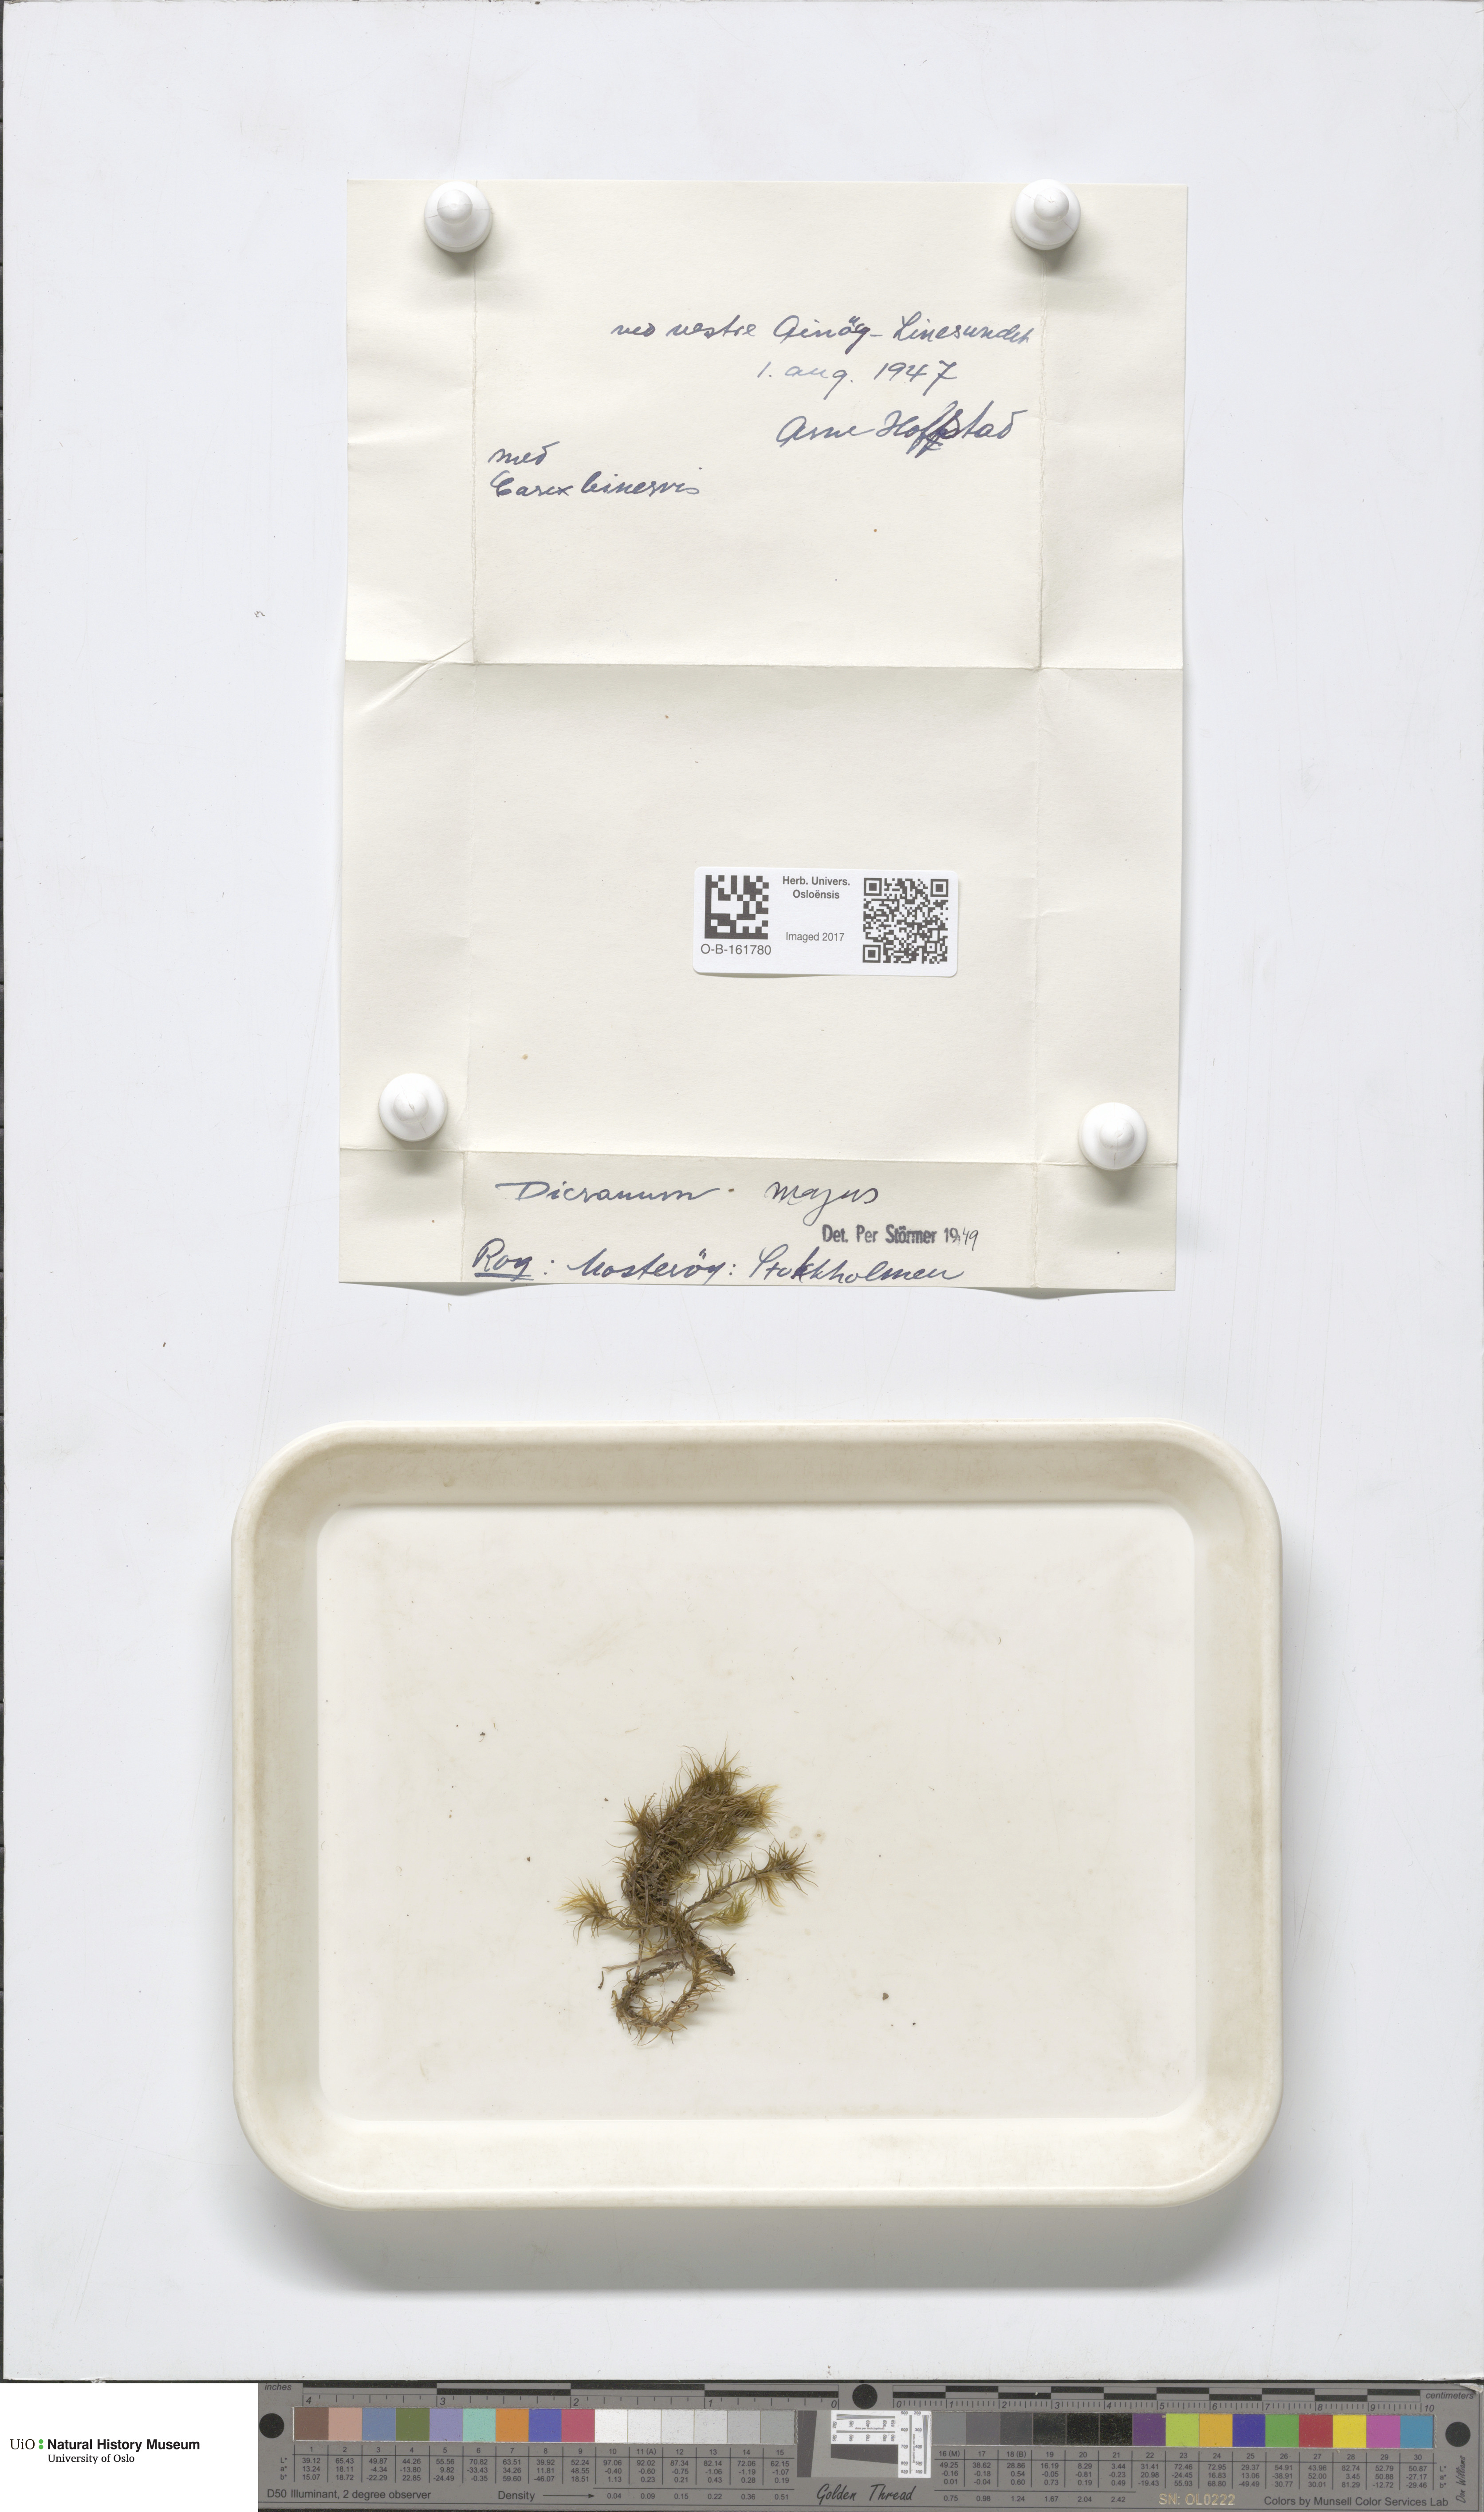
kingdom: Plantae
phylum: Bryophyta
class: Bryopsida
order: Dicranales
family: Dicranaceae
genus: Dicranum
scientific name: Dicranum majus
